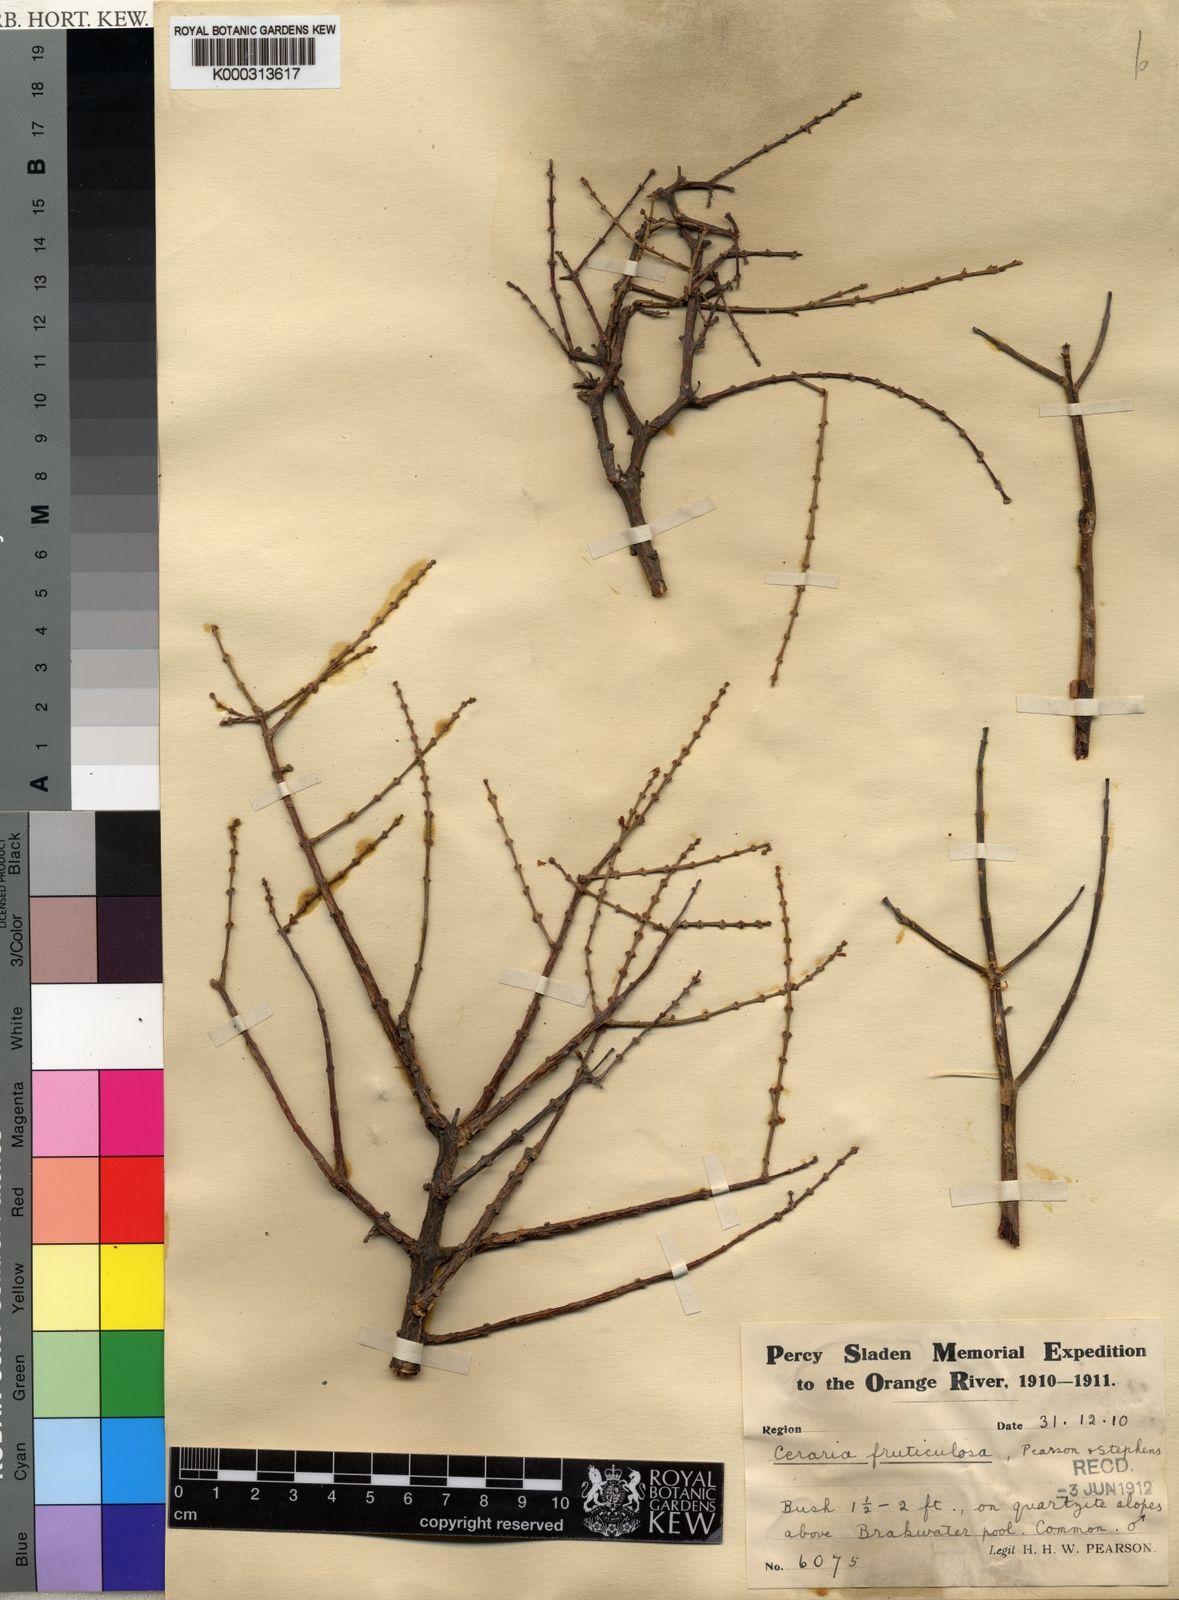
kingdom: Plantae
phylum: Tracheophyta
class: Magnoliopsida
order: Caryophyllales
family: Didiereaceae
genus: Portulacaria
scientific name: Portulacaria fruticulosa
